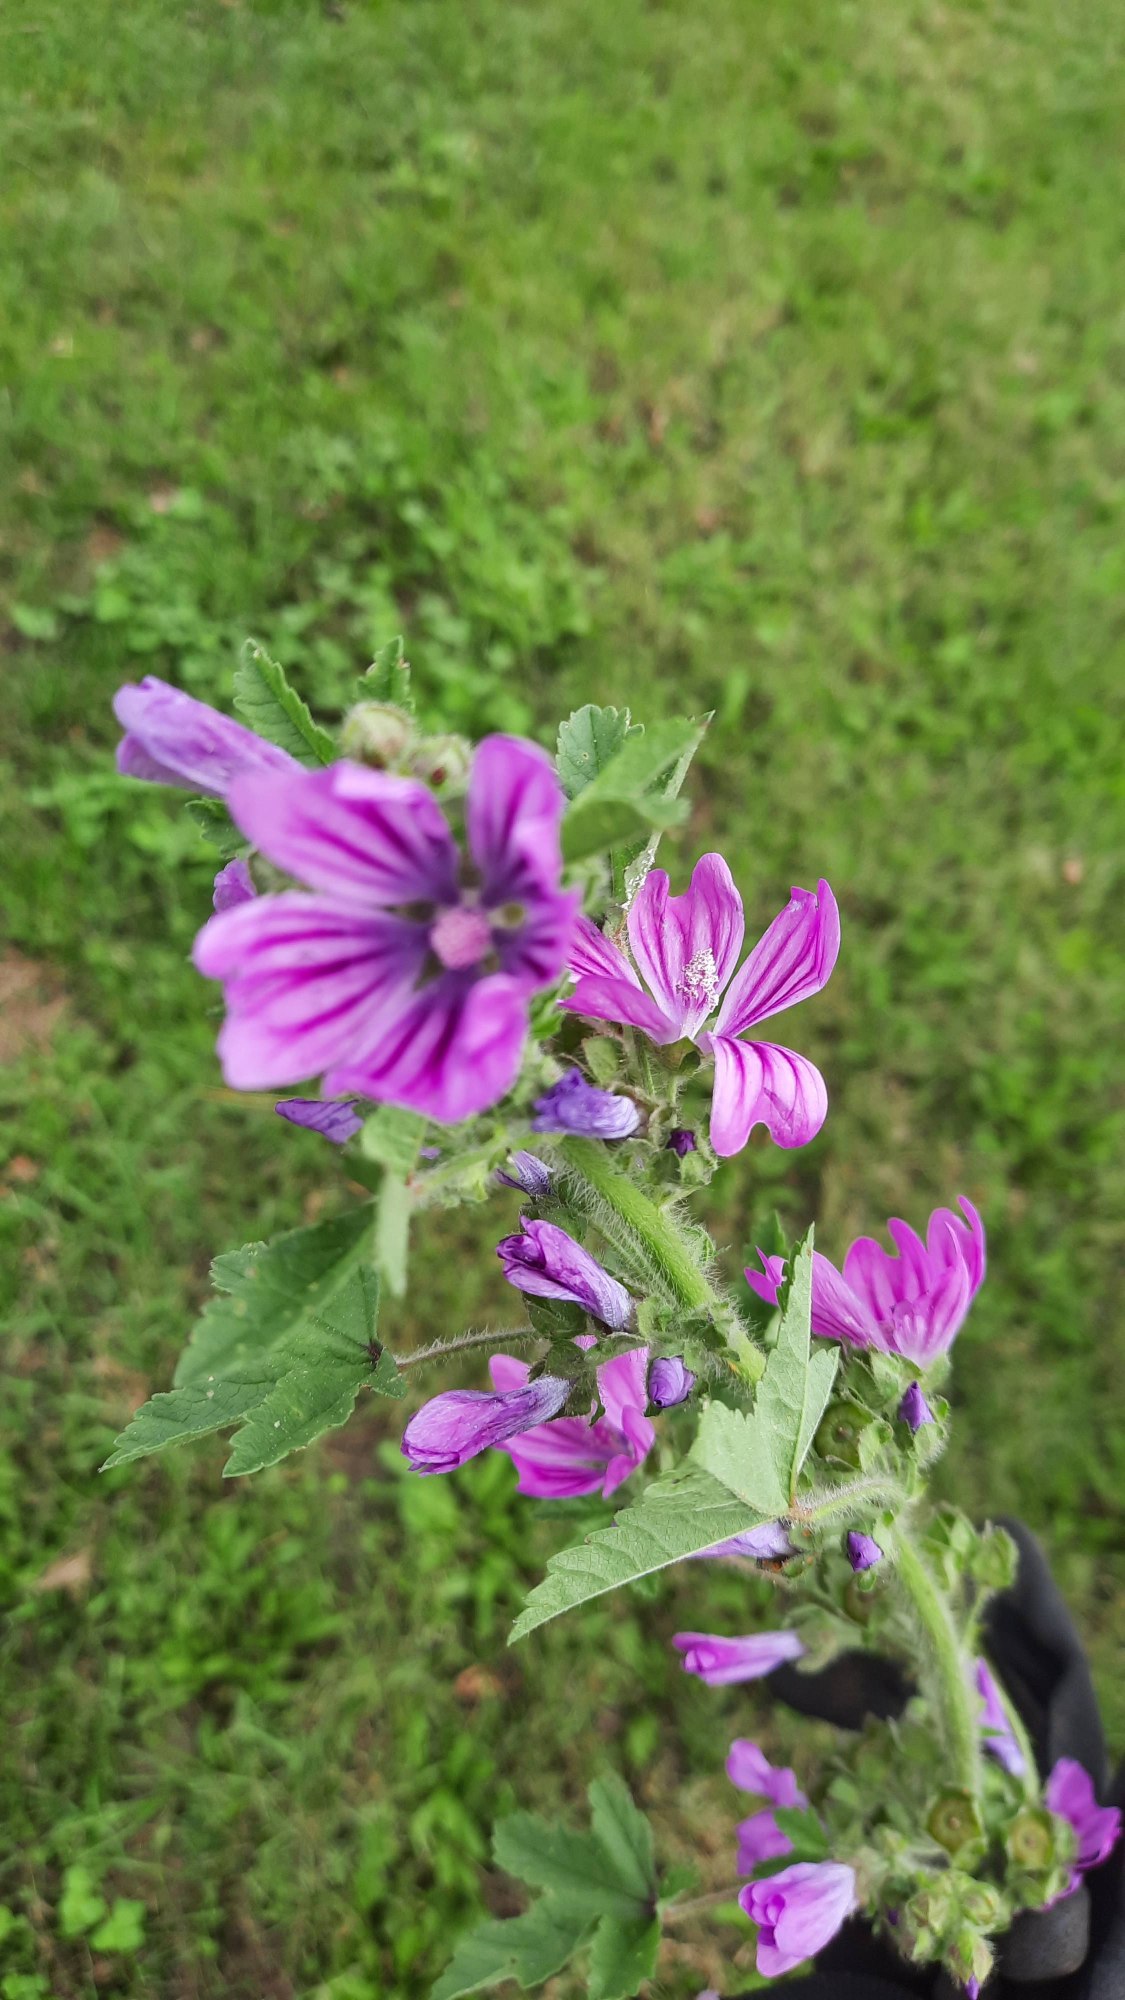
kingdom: Plantae
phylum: Tracheophyta
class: Magnoliopsida
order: Malvales
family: Malvaceae
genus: Malva
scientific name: Malva sylvestris
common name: Almindelig katost
